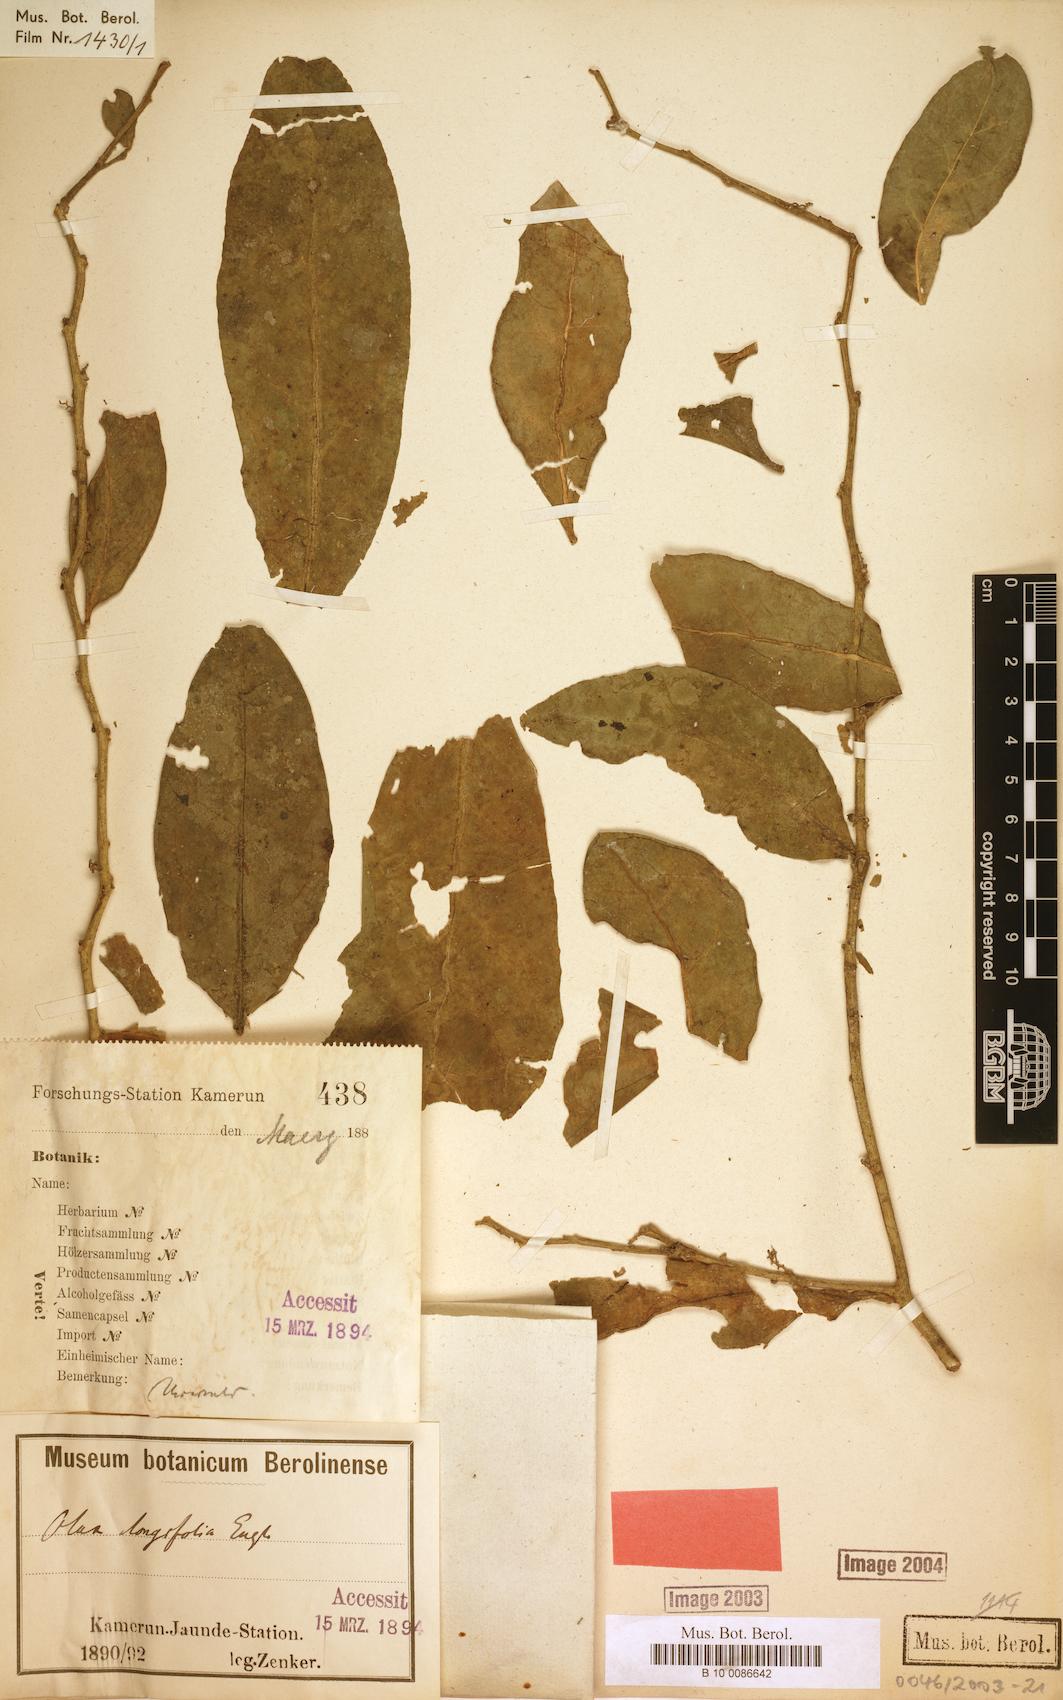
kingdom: Plantae
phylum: Tracheophyta
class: Magnoliopsida
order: Santalales
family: Olacaceae
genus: Olax
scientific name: Olax latifolia
